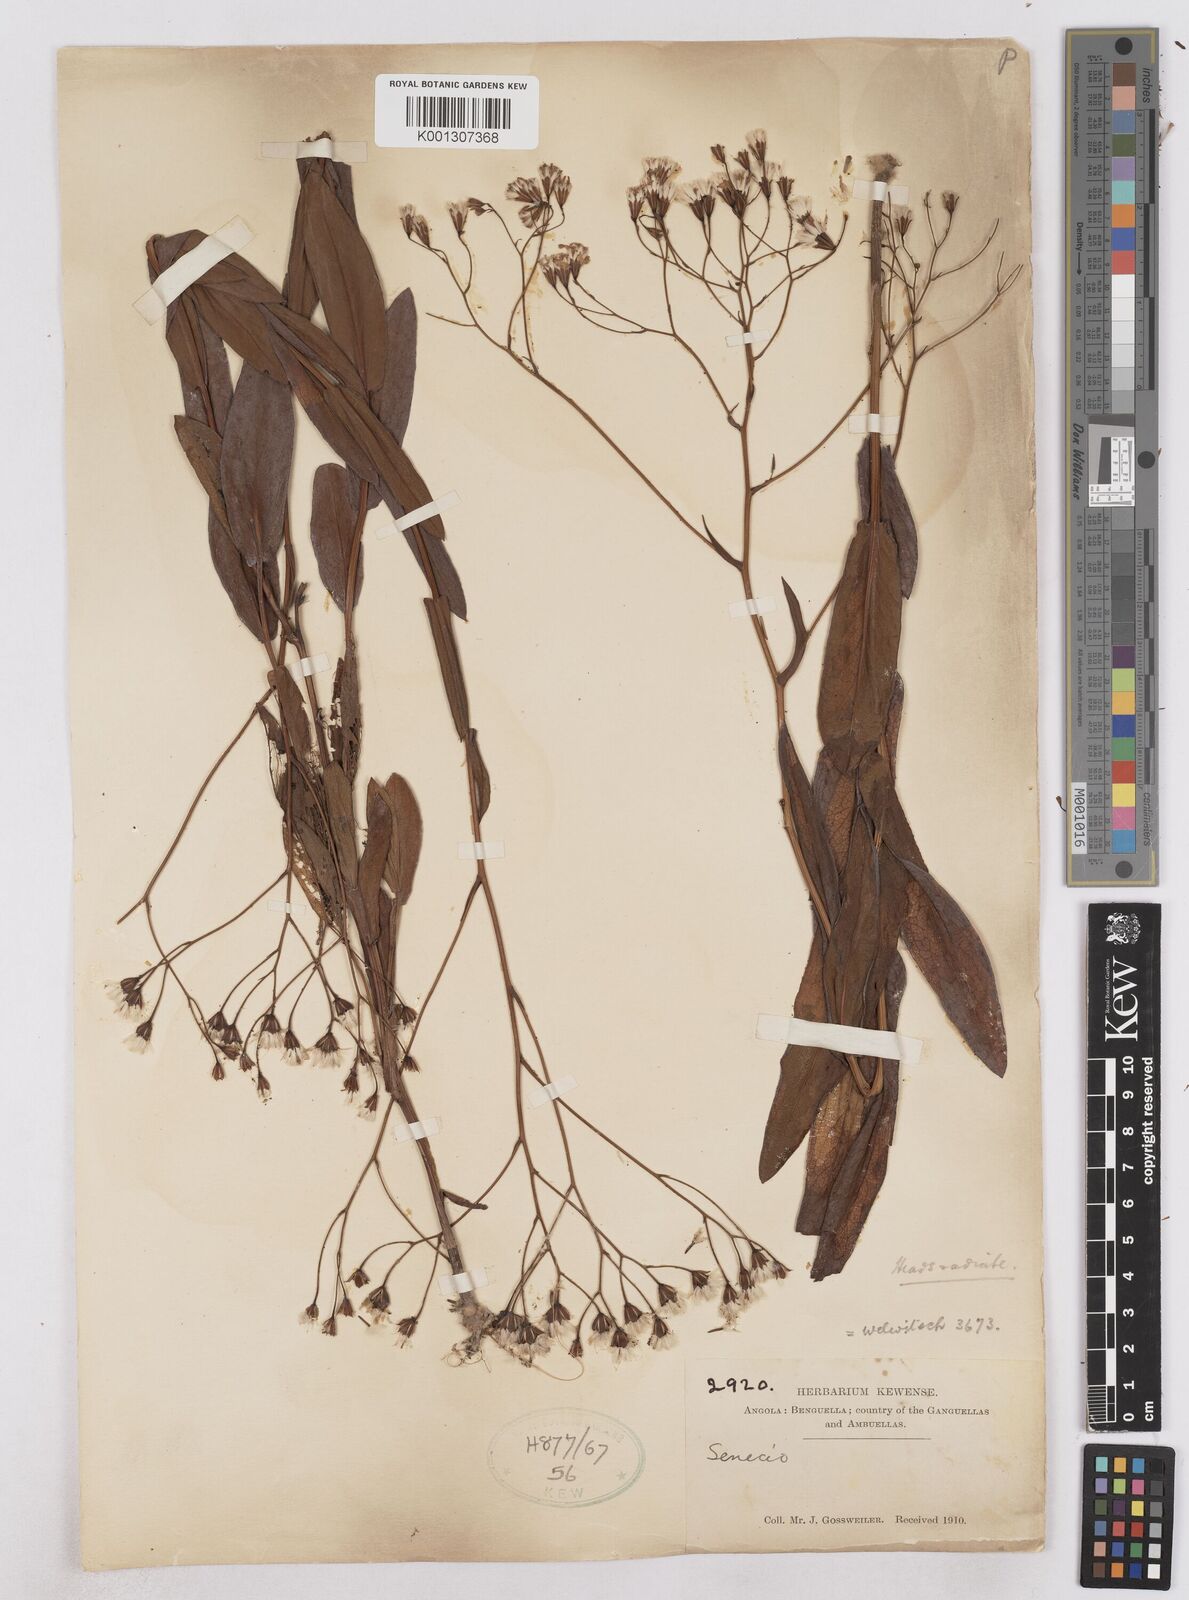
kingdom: Plantae
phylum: Tracheophyta
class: Magnoliopsida
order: Asterales
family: Asteraceae
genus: Senecio
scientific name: Senecio latifolius
